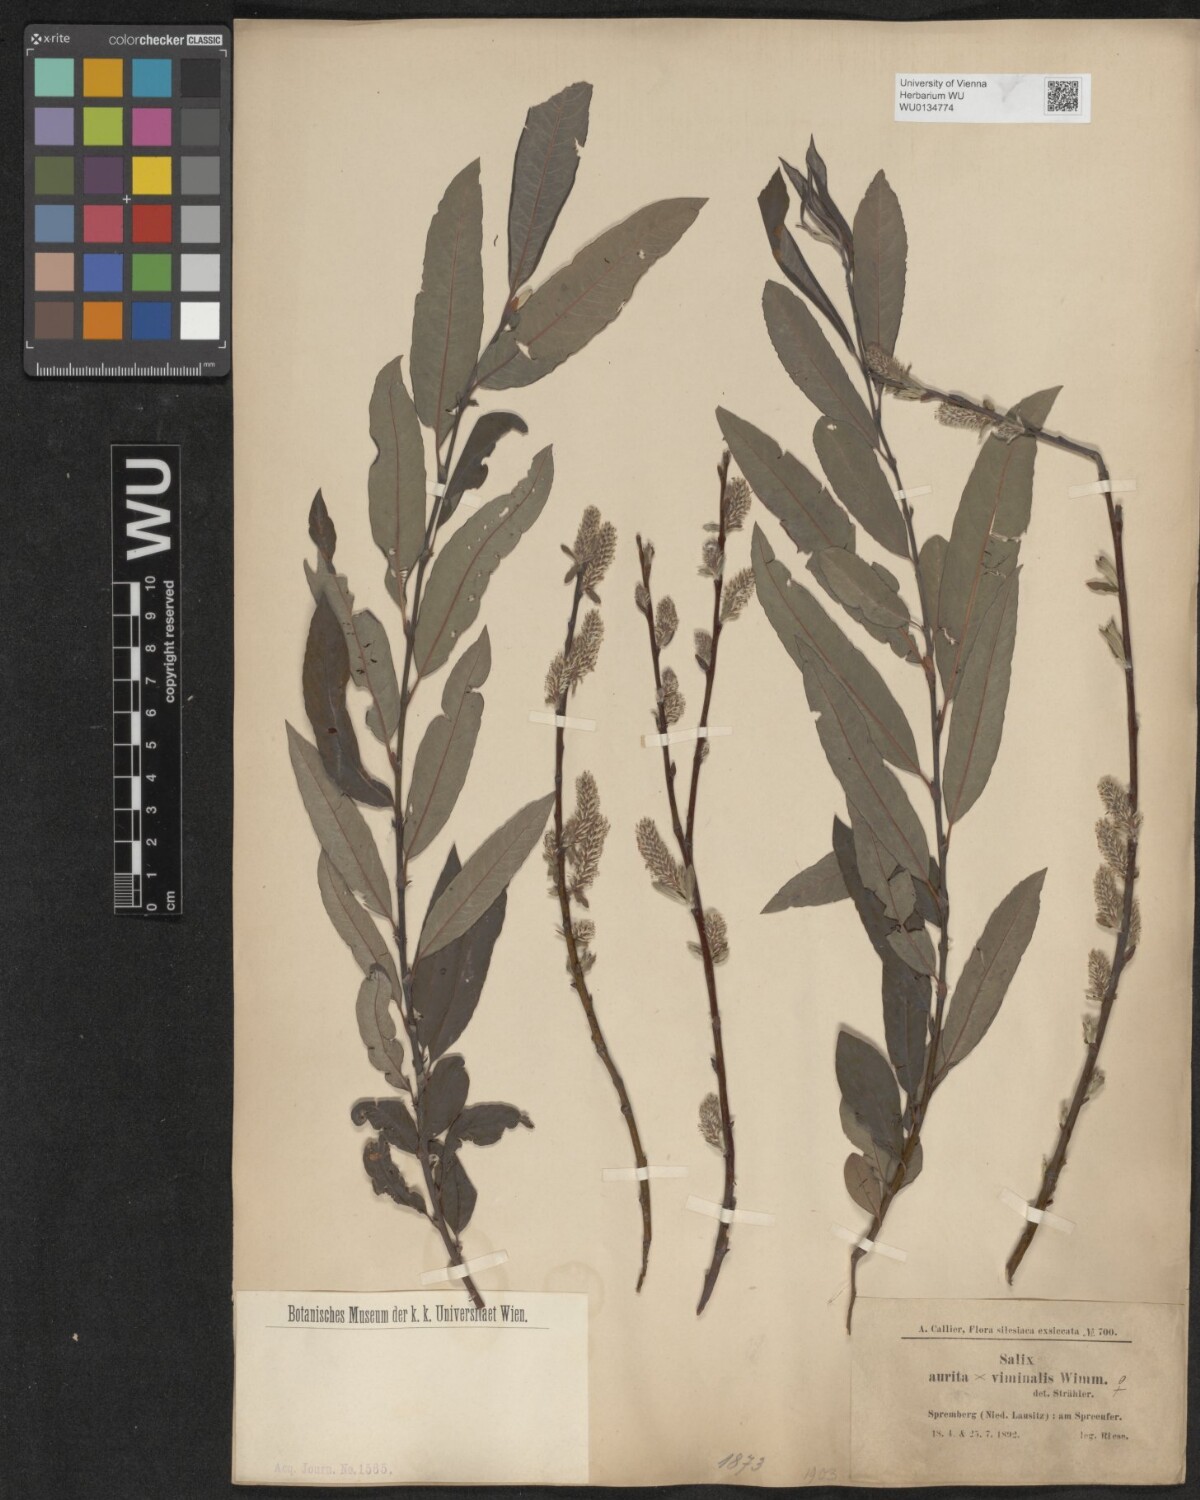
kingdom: Plantae
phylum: Tracheophyta
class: Magnoliopsida
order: Malpighiales
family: Salicaceae
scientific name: Salicaceae
